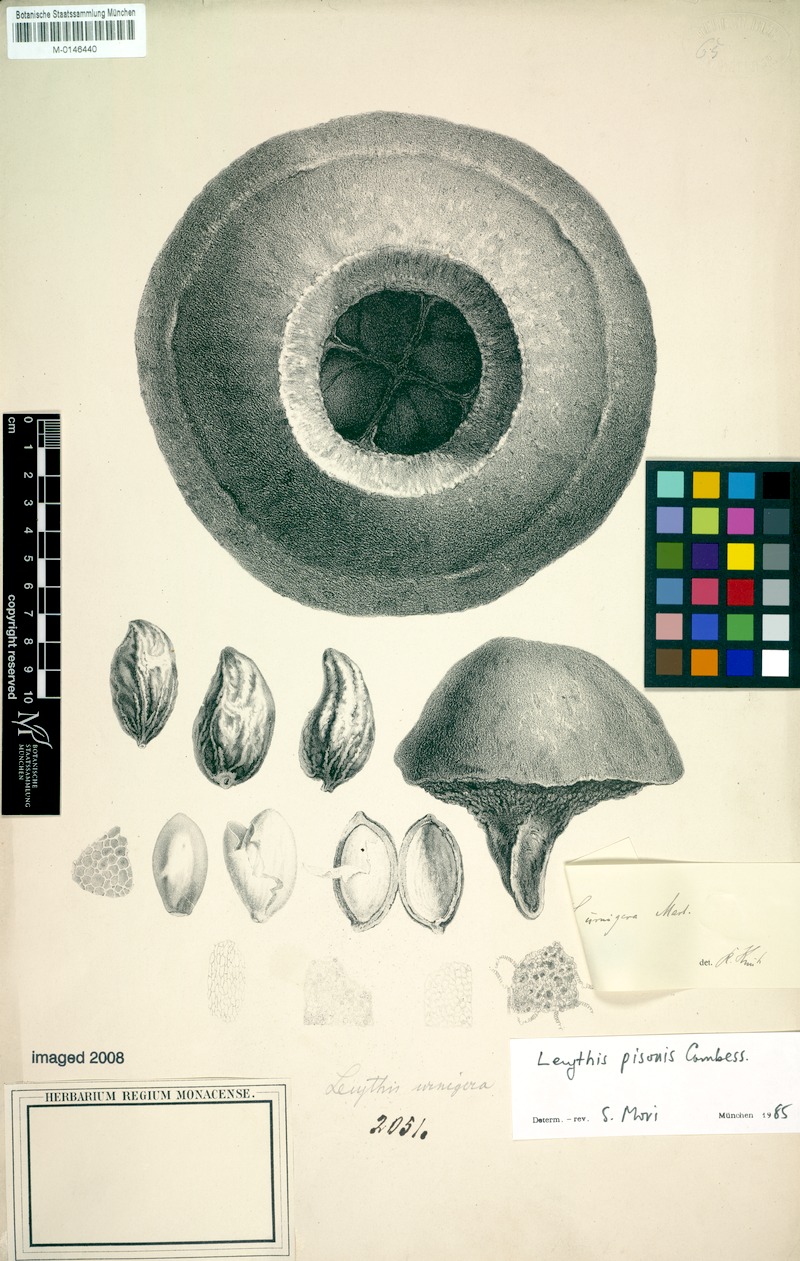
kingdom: Plantae
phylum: Tracheophyta
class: Magnoliopsida
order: Ericales
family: Lecythidaceae
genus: Lecythis
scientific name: Lecythis pisonis
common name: Paradise-nut
